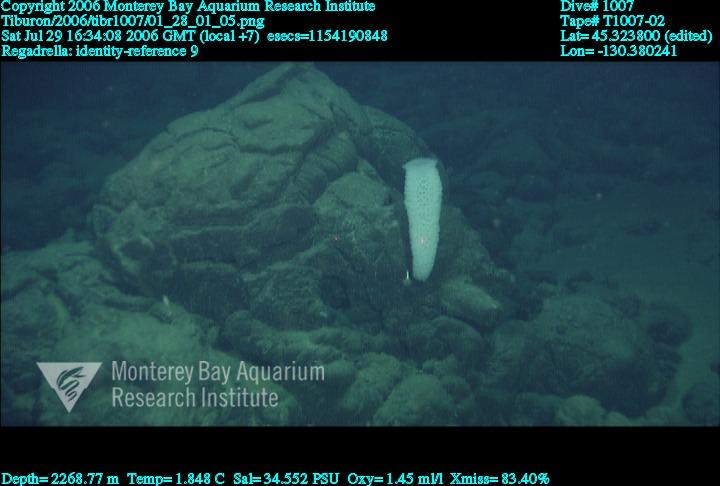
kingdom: Animalia
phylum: Porifera
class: Hexactinellida
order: Lyssacinosida
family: Euplectellidae
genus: Regadrella
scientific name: Regadrella
